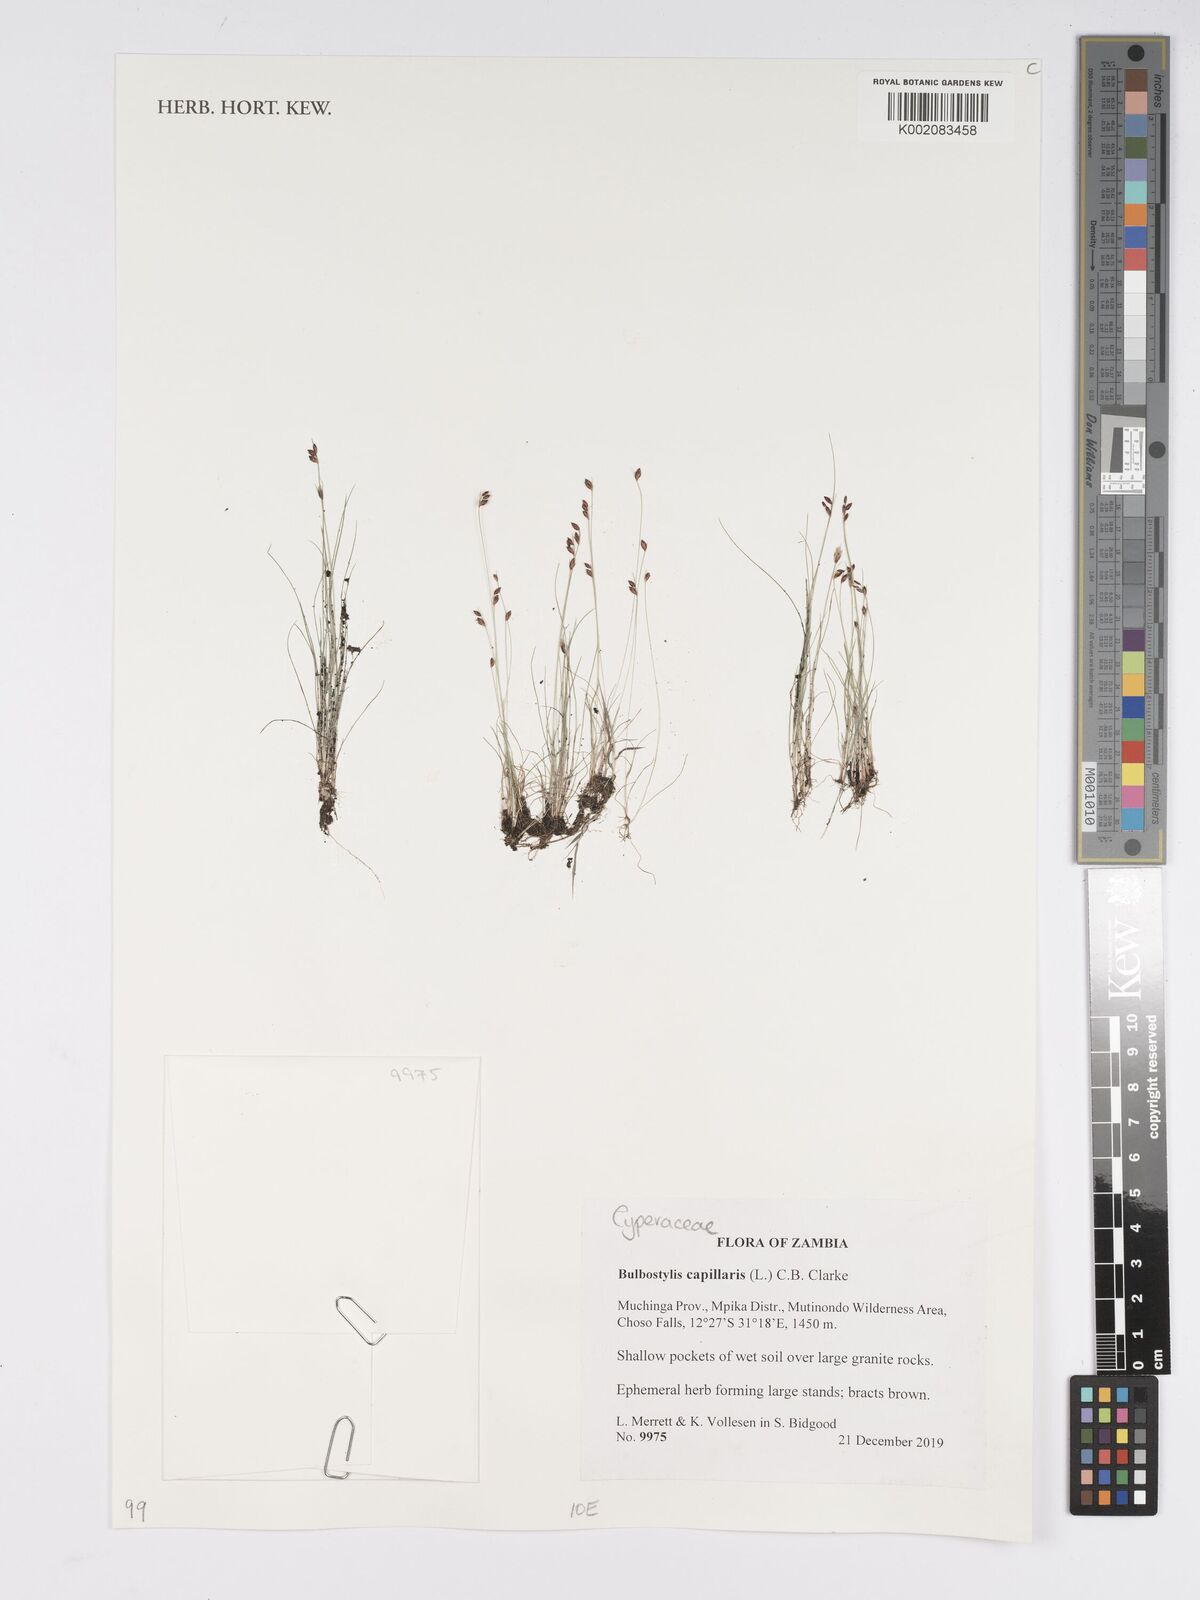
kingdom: Plantae
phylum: Tracheophyta
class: Liliopsida
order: Poales
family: Cyperaceae
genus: Bulbostylis
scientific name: Bulbostylis capillaris
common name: Densetuft hairsedge
